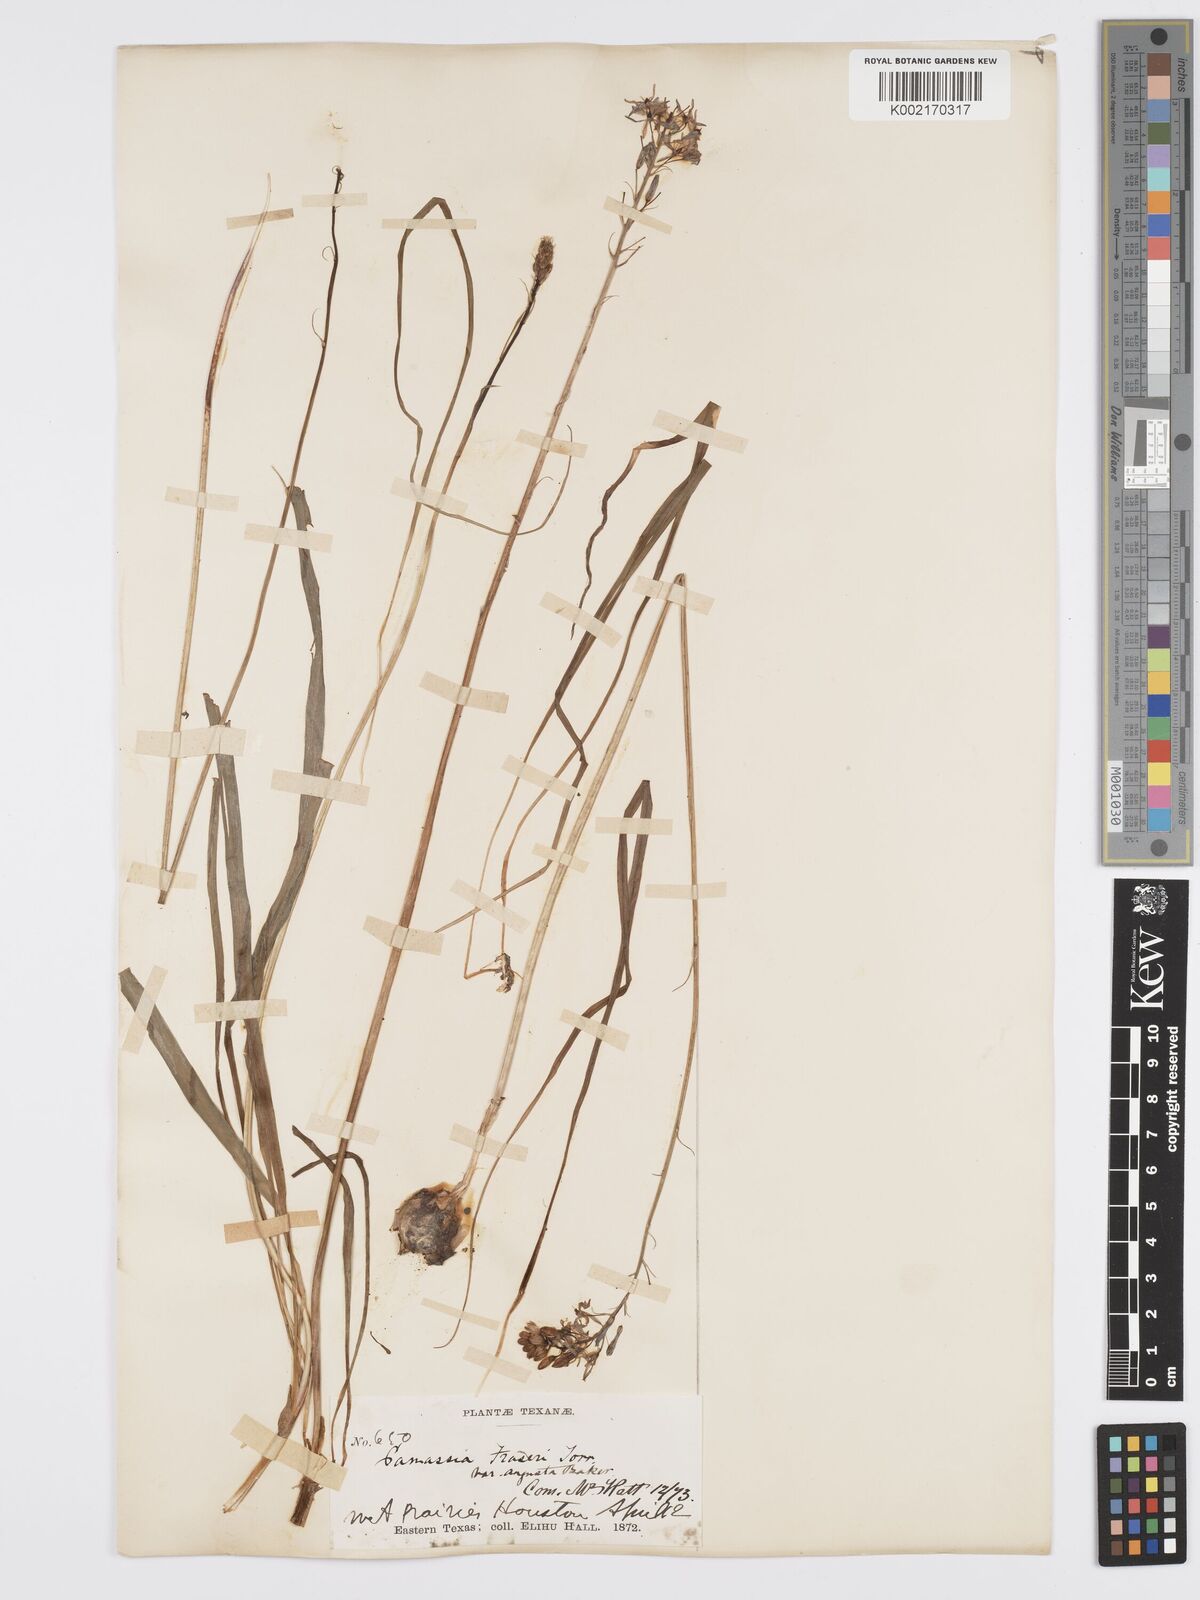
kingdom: Plantae
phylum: Tracheophyta
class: Liliopsida
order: Asparagales
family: Asparagaceae
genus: Camassia
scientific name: Camassia scilloides
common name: Wild hyacinth
